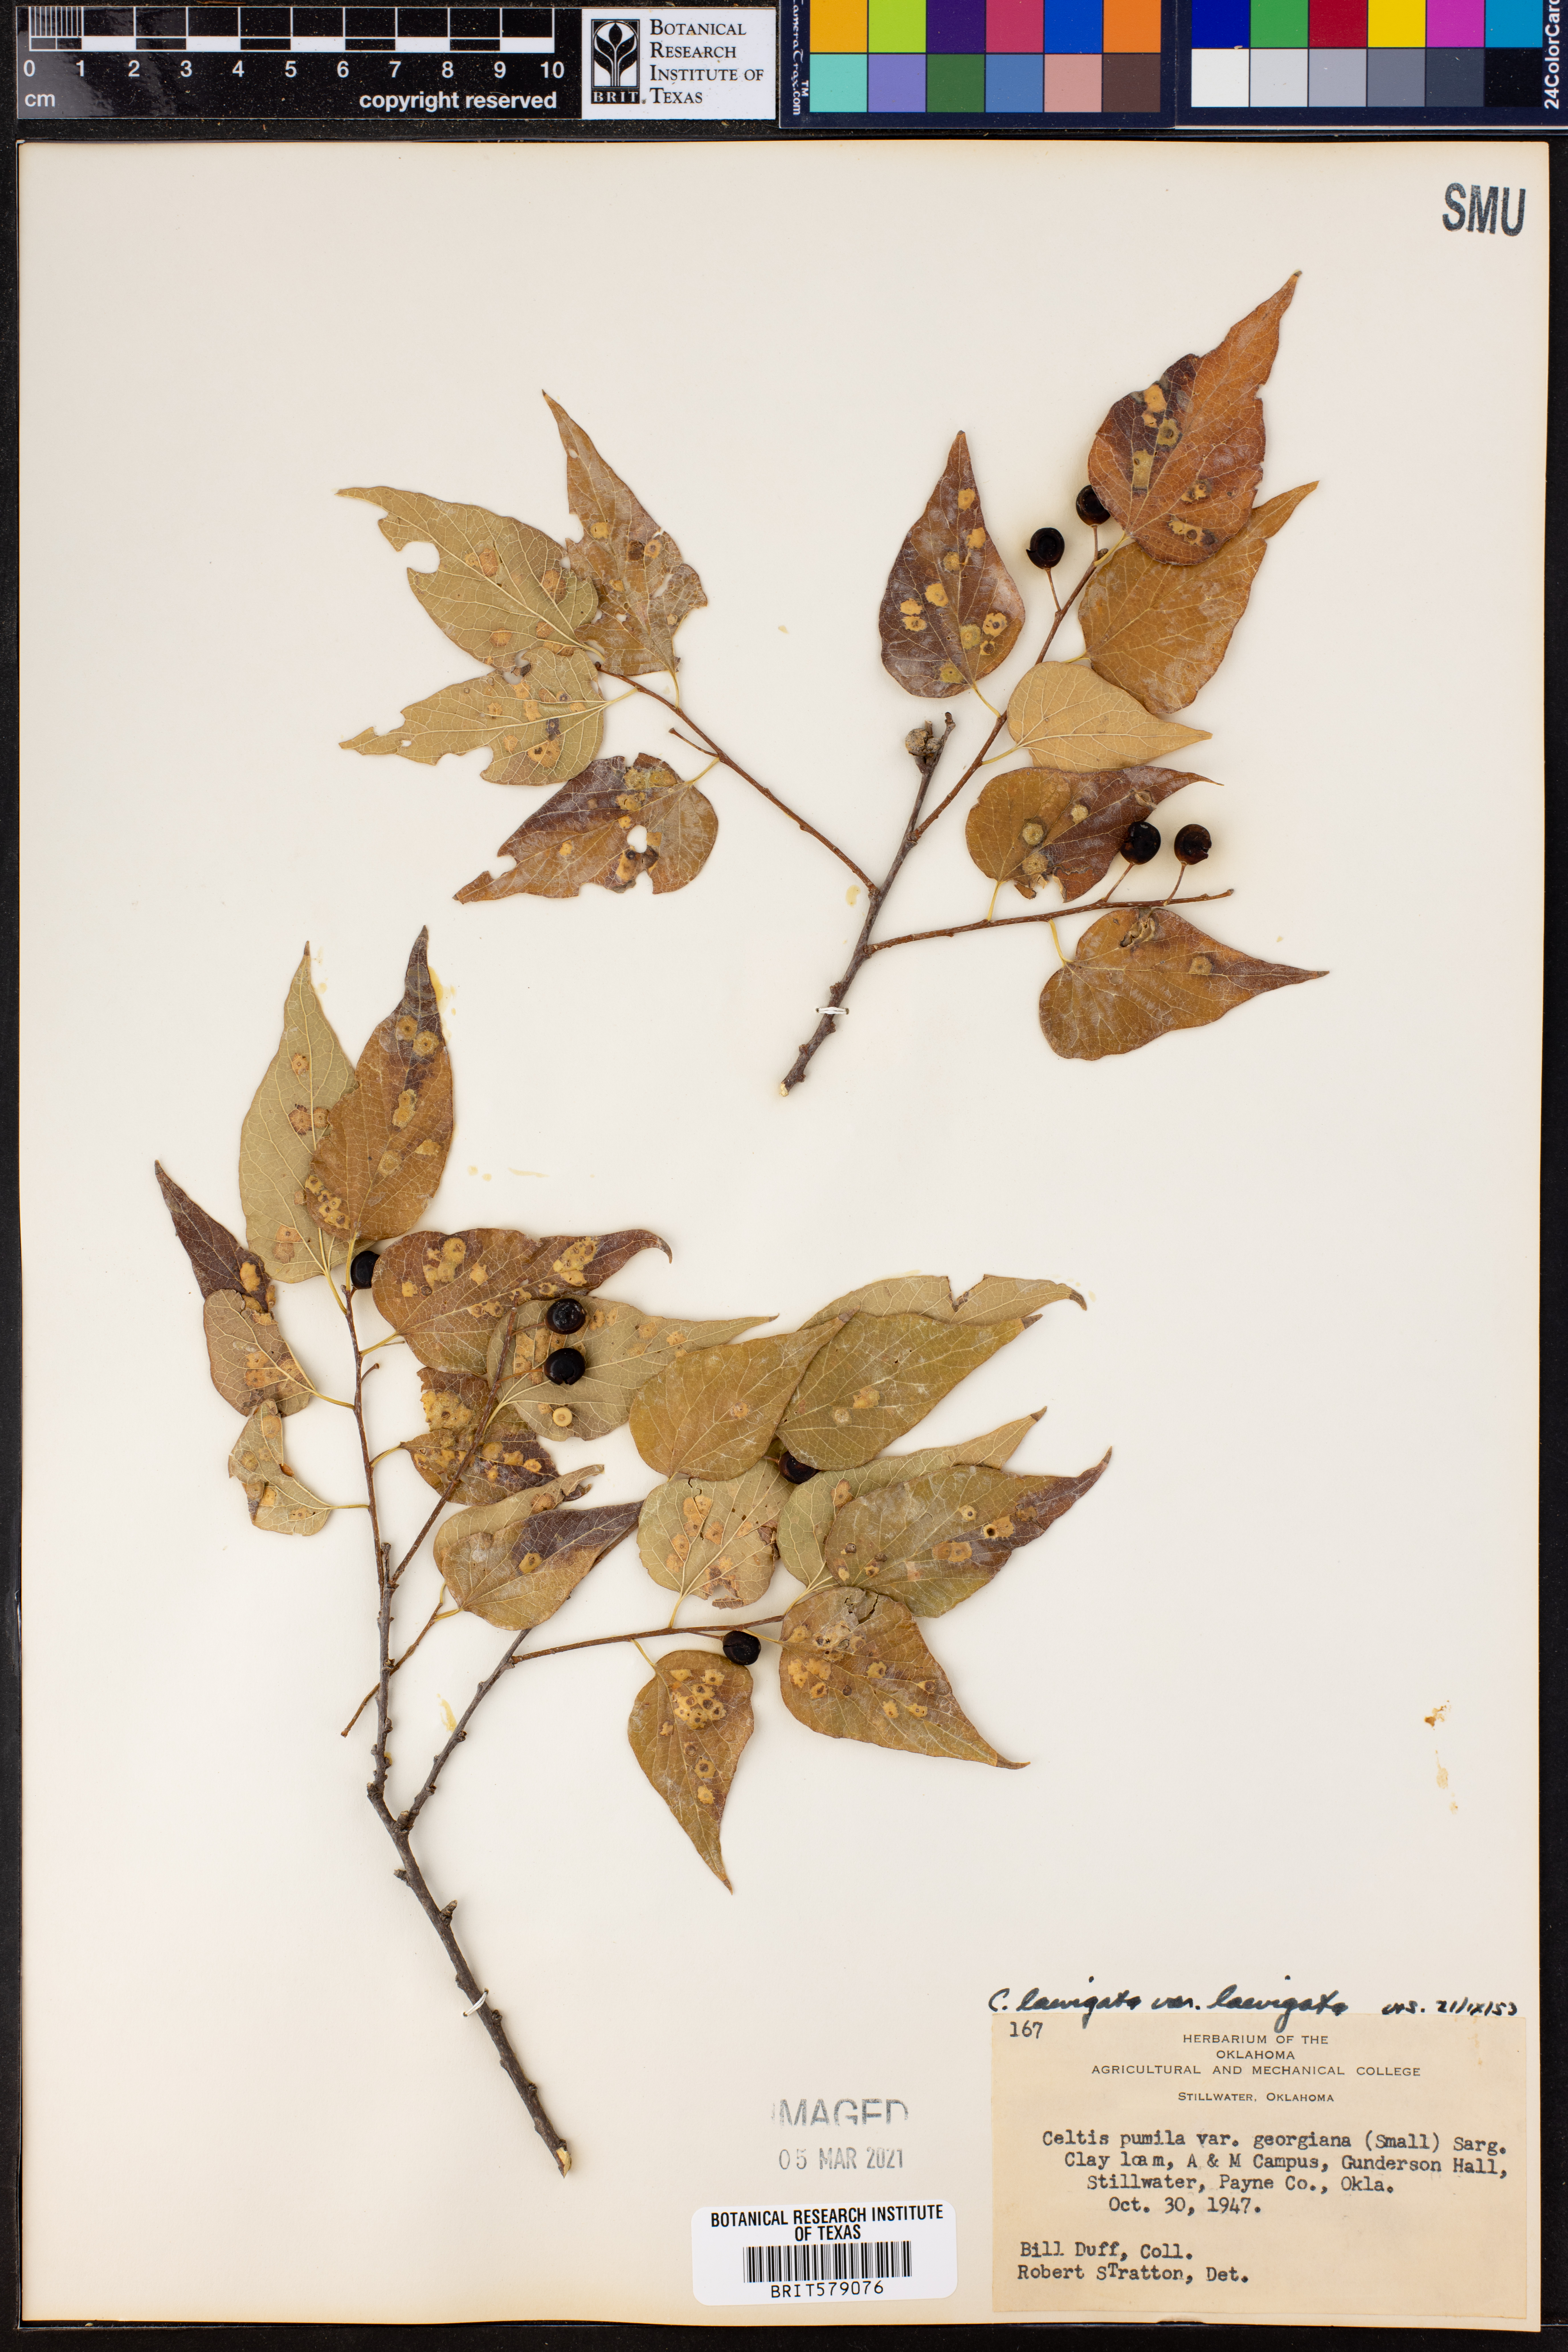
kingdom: Plantae
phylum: Tracheophyta
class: Magnoliopsida
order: Rosales
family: Cannabaceae
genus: Celtis
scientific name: Celtis laevigata
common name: Sugarberry
